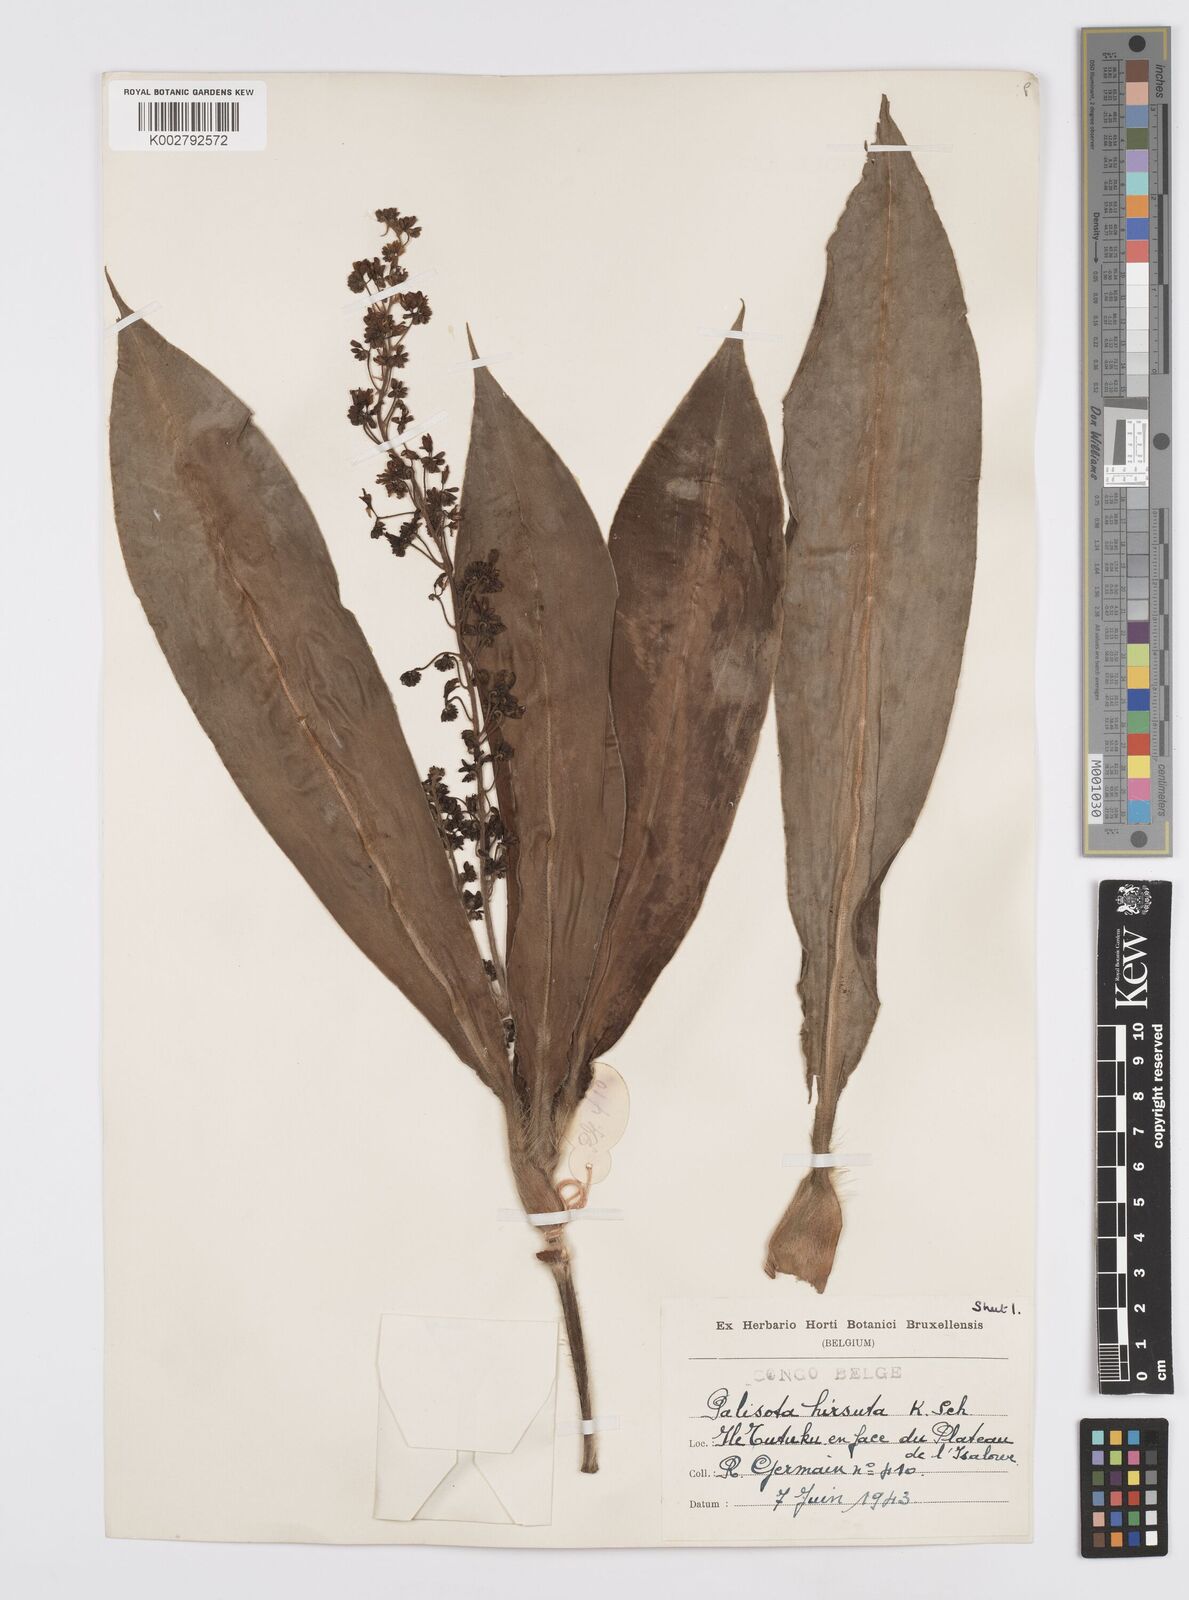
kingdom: Plantae
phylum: Tracheophyta
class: Liliopsida
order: Commelinales
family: Commelinaceae
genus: Palisota
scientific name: Palisota hirsuta
